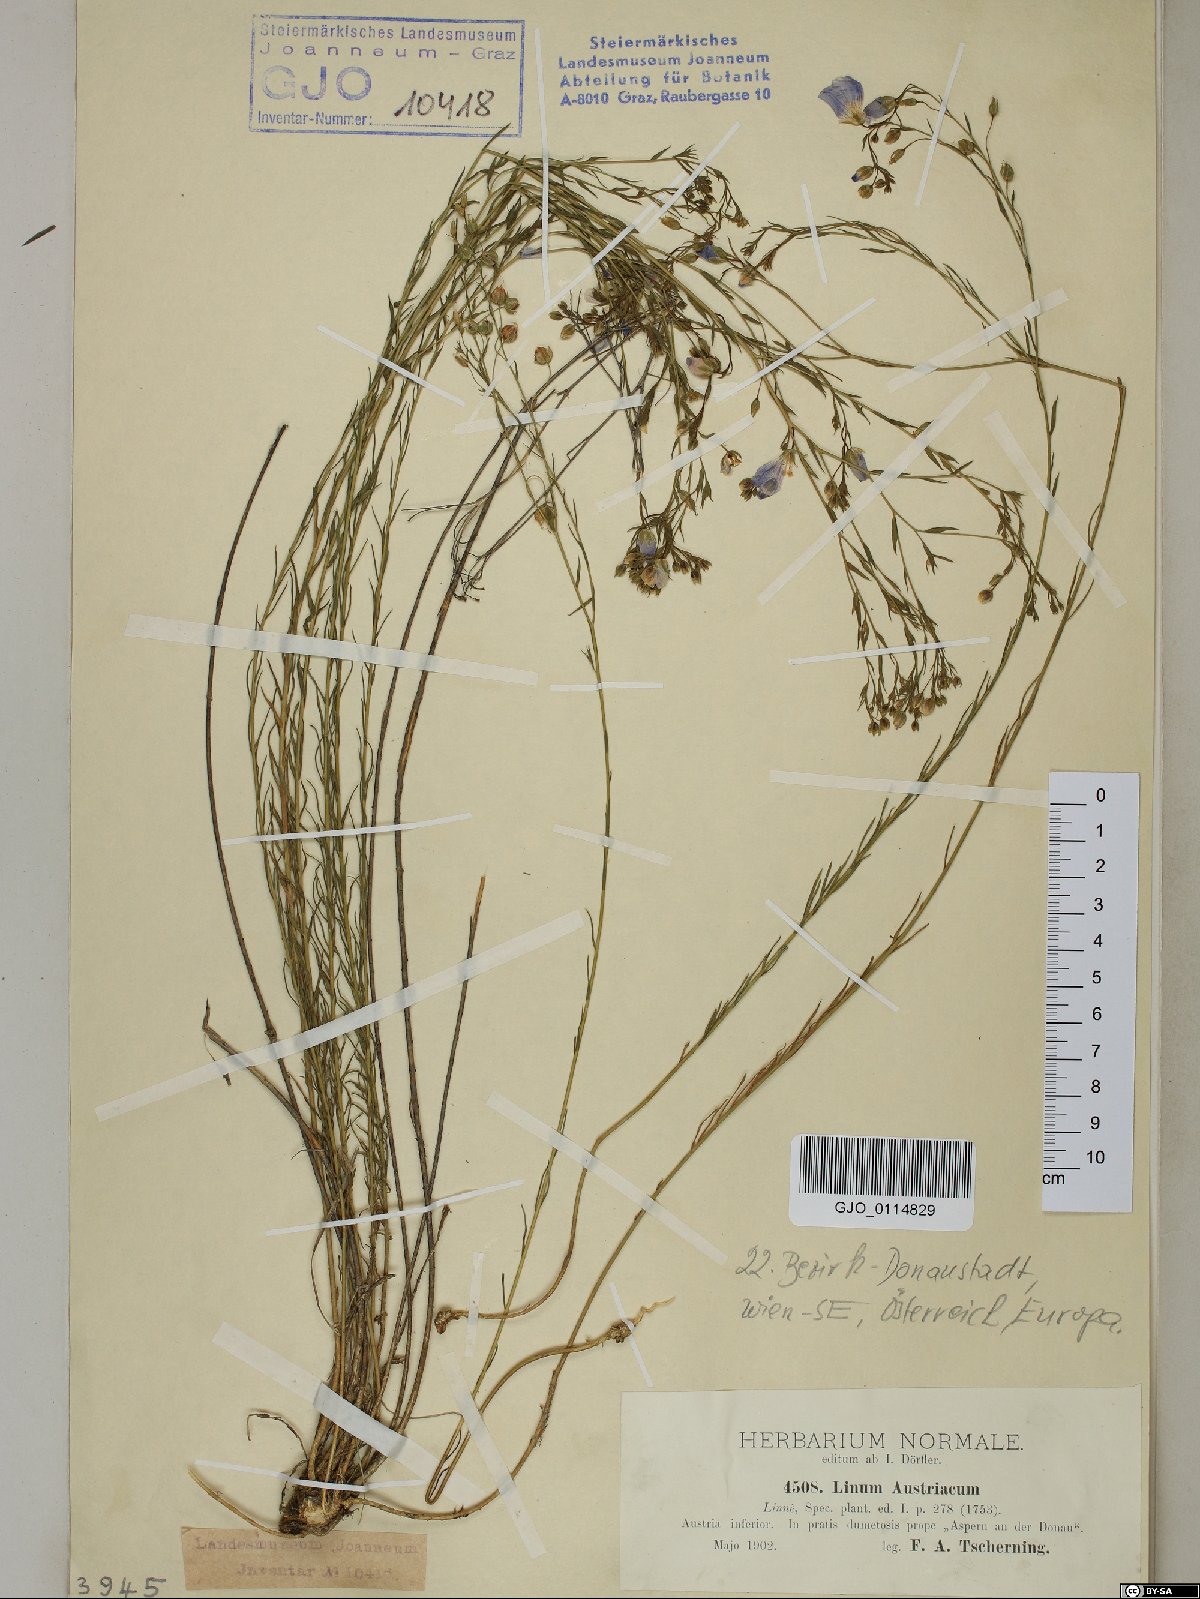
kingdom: Plantae
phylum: Tracheophyta
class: Magnoliopsida
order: Malpighiales
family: Linaceae
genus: Linum
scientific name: Linum austriacum
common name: Austrian flax
